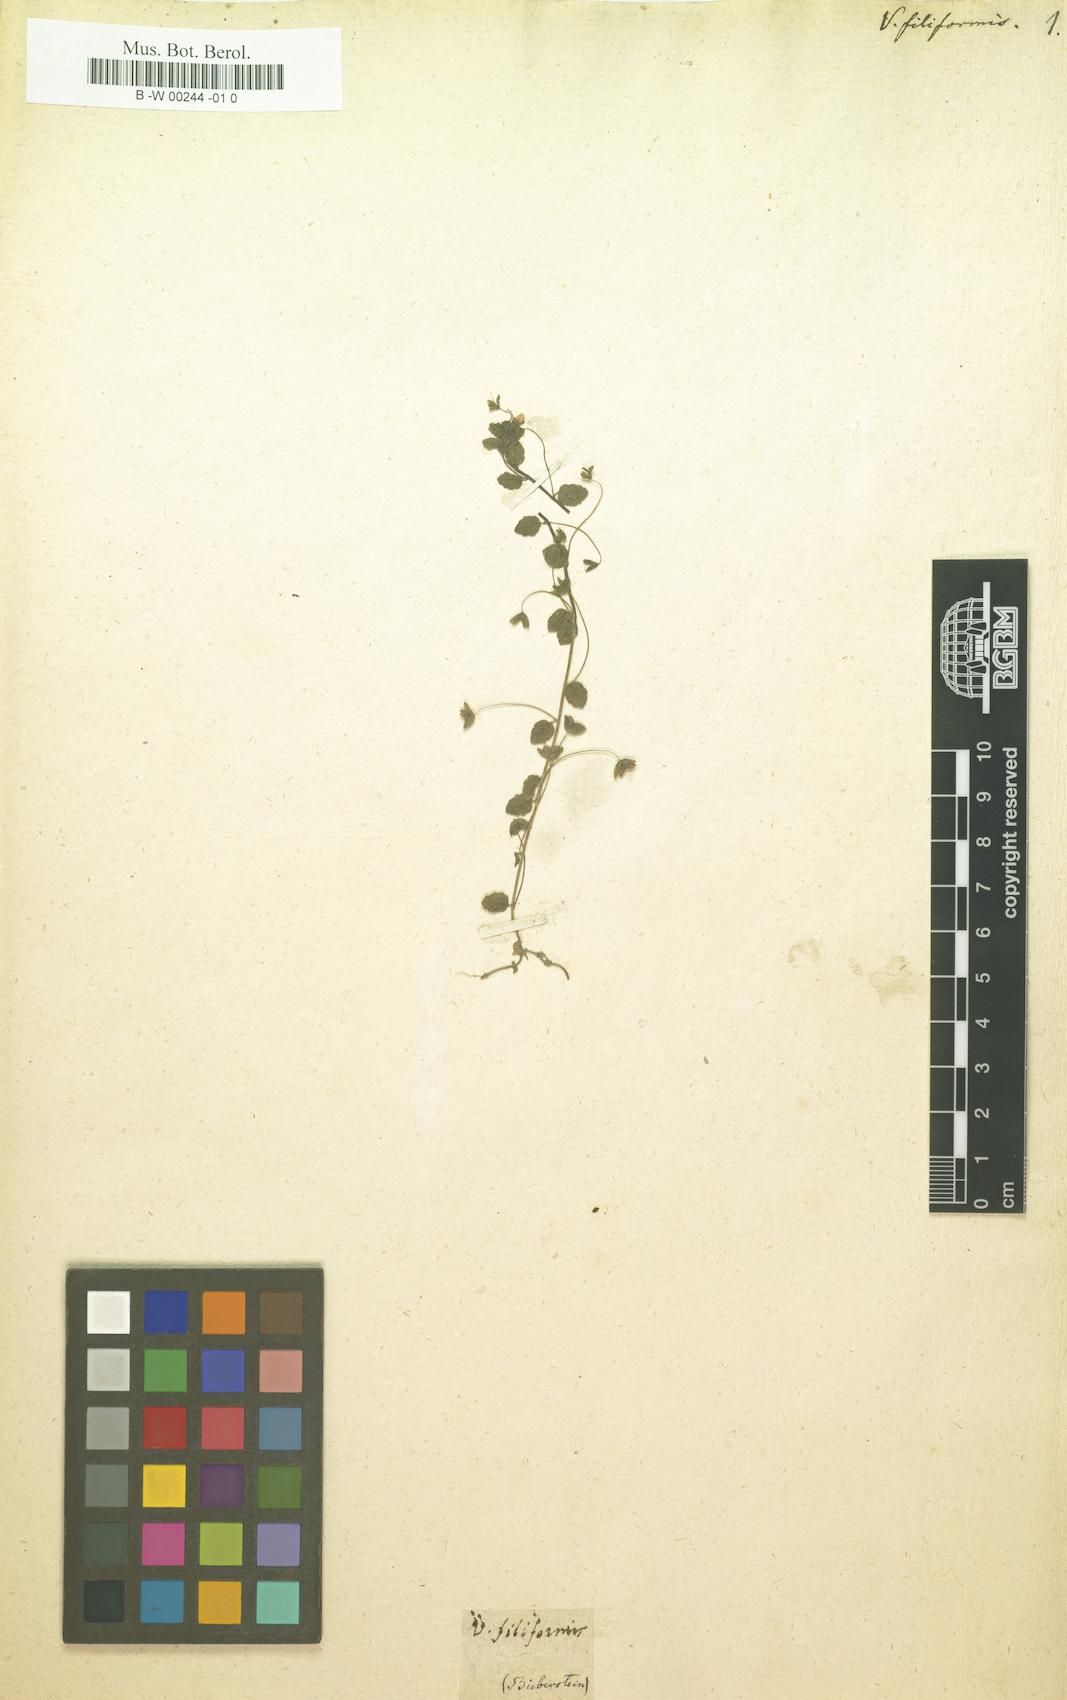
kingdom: Plantae
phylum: Tracheophyta
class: Magnoliopsida
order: Lamiales
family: Plantaginaceae
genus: Veronica
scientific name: Veronica filiformis
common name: Slender speedwell
